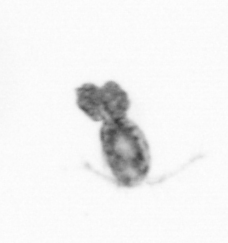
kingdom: Animalia
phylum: Arthropoda
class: Copepoda
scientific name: Copepoda
